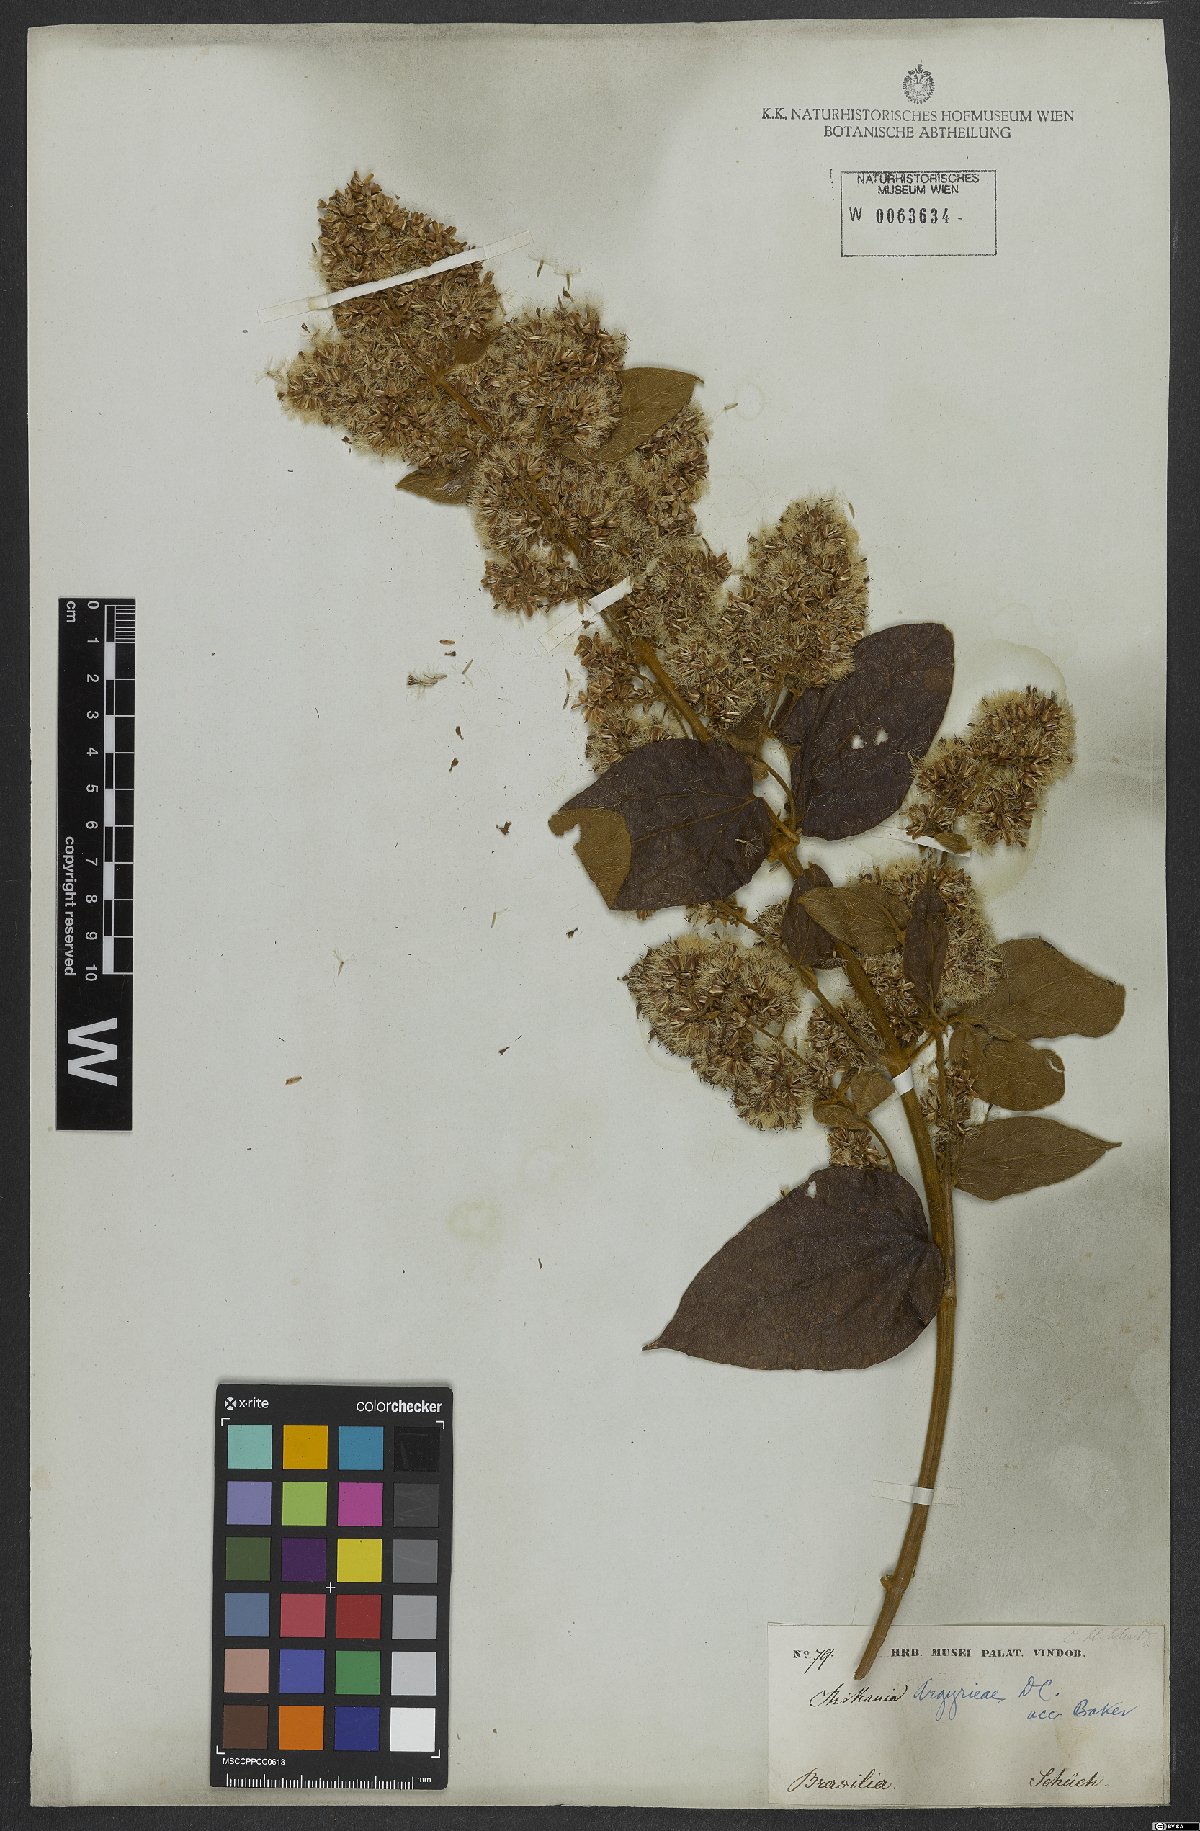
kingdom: Plantae
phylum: Tracheophyta
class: Magnoliopsida
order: Asterales
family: Asteraceae
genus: Mikania
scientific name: Mikania argyreiae
